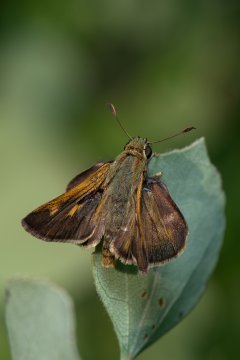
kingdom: Animalia
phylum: Arthropoda
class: Insecta
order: Lepidoptera
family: Hesperiidae
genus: Polites
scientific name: Polites egeremet
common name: Northern Broken-Dash
